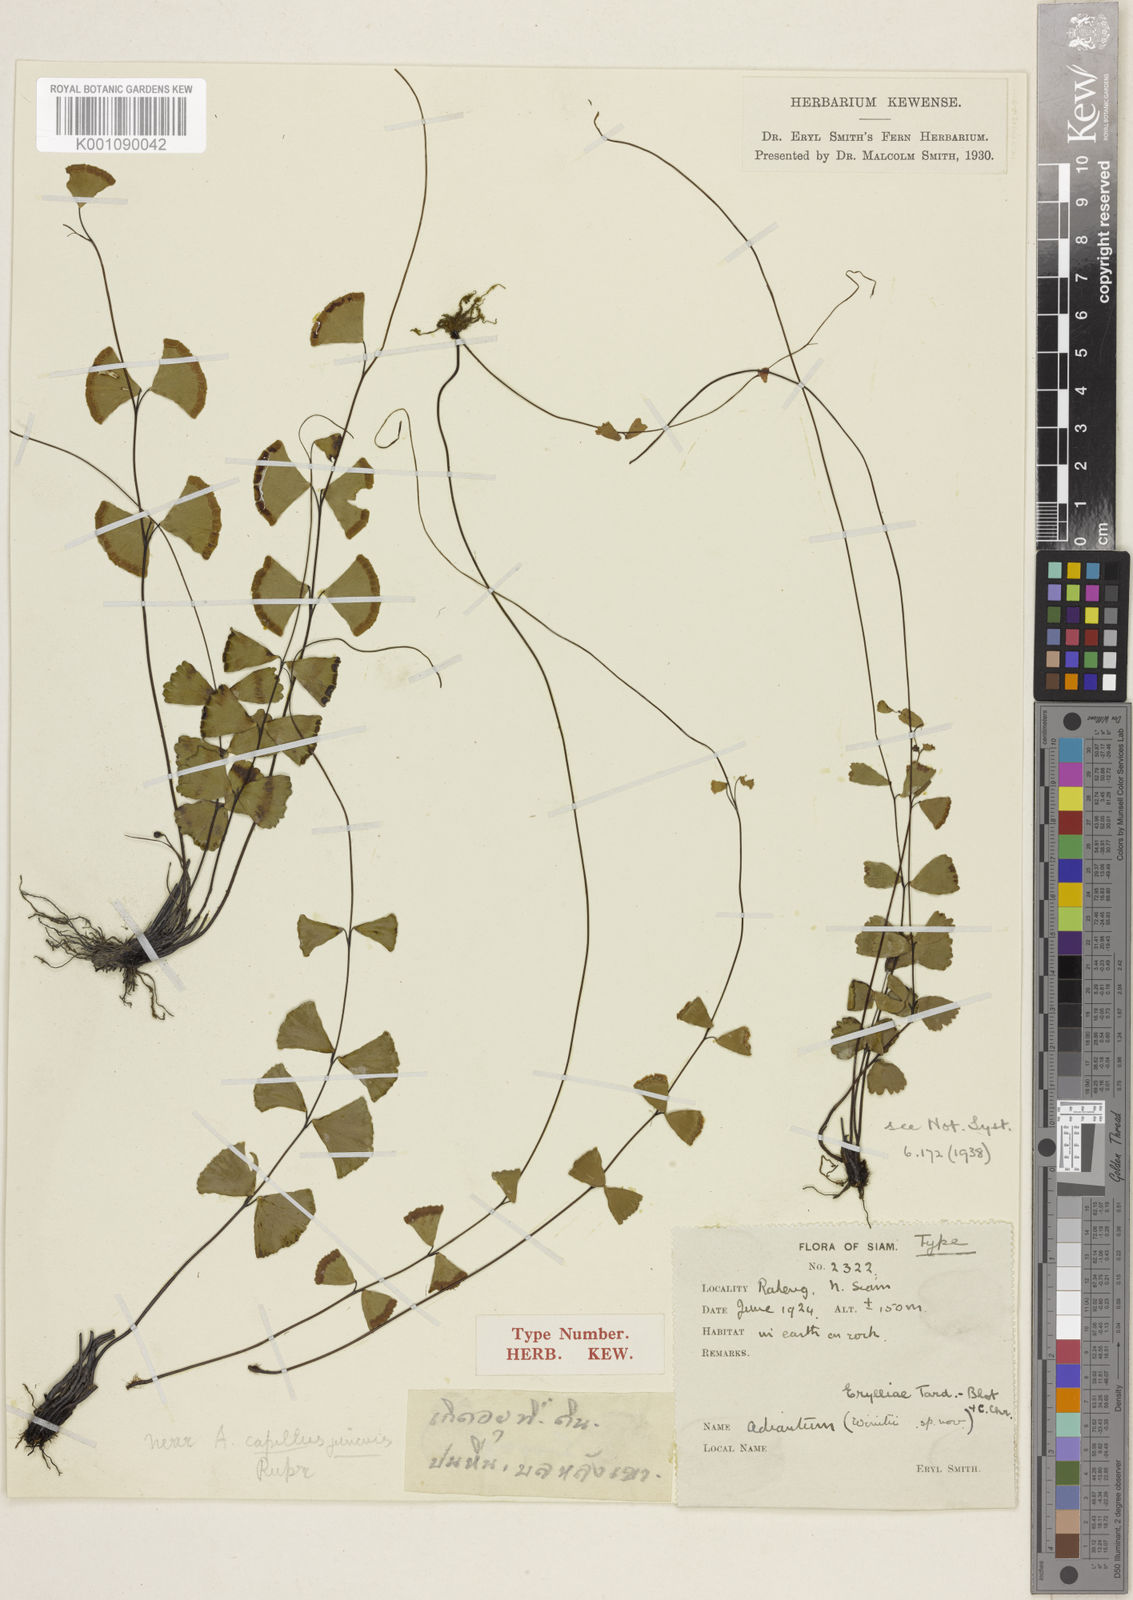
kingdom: Plantae
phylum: Tracheophyta
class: Polypodiopsida
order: Polypodiales
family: Pteridaceae
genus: Adiantum
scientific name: Adiantum erylliae
